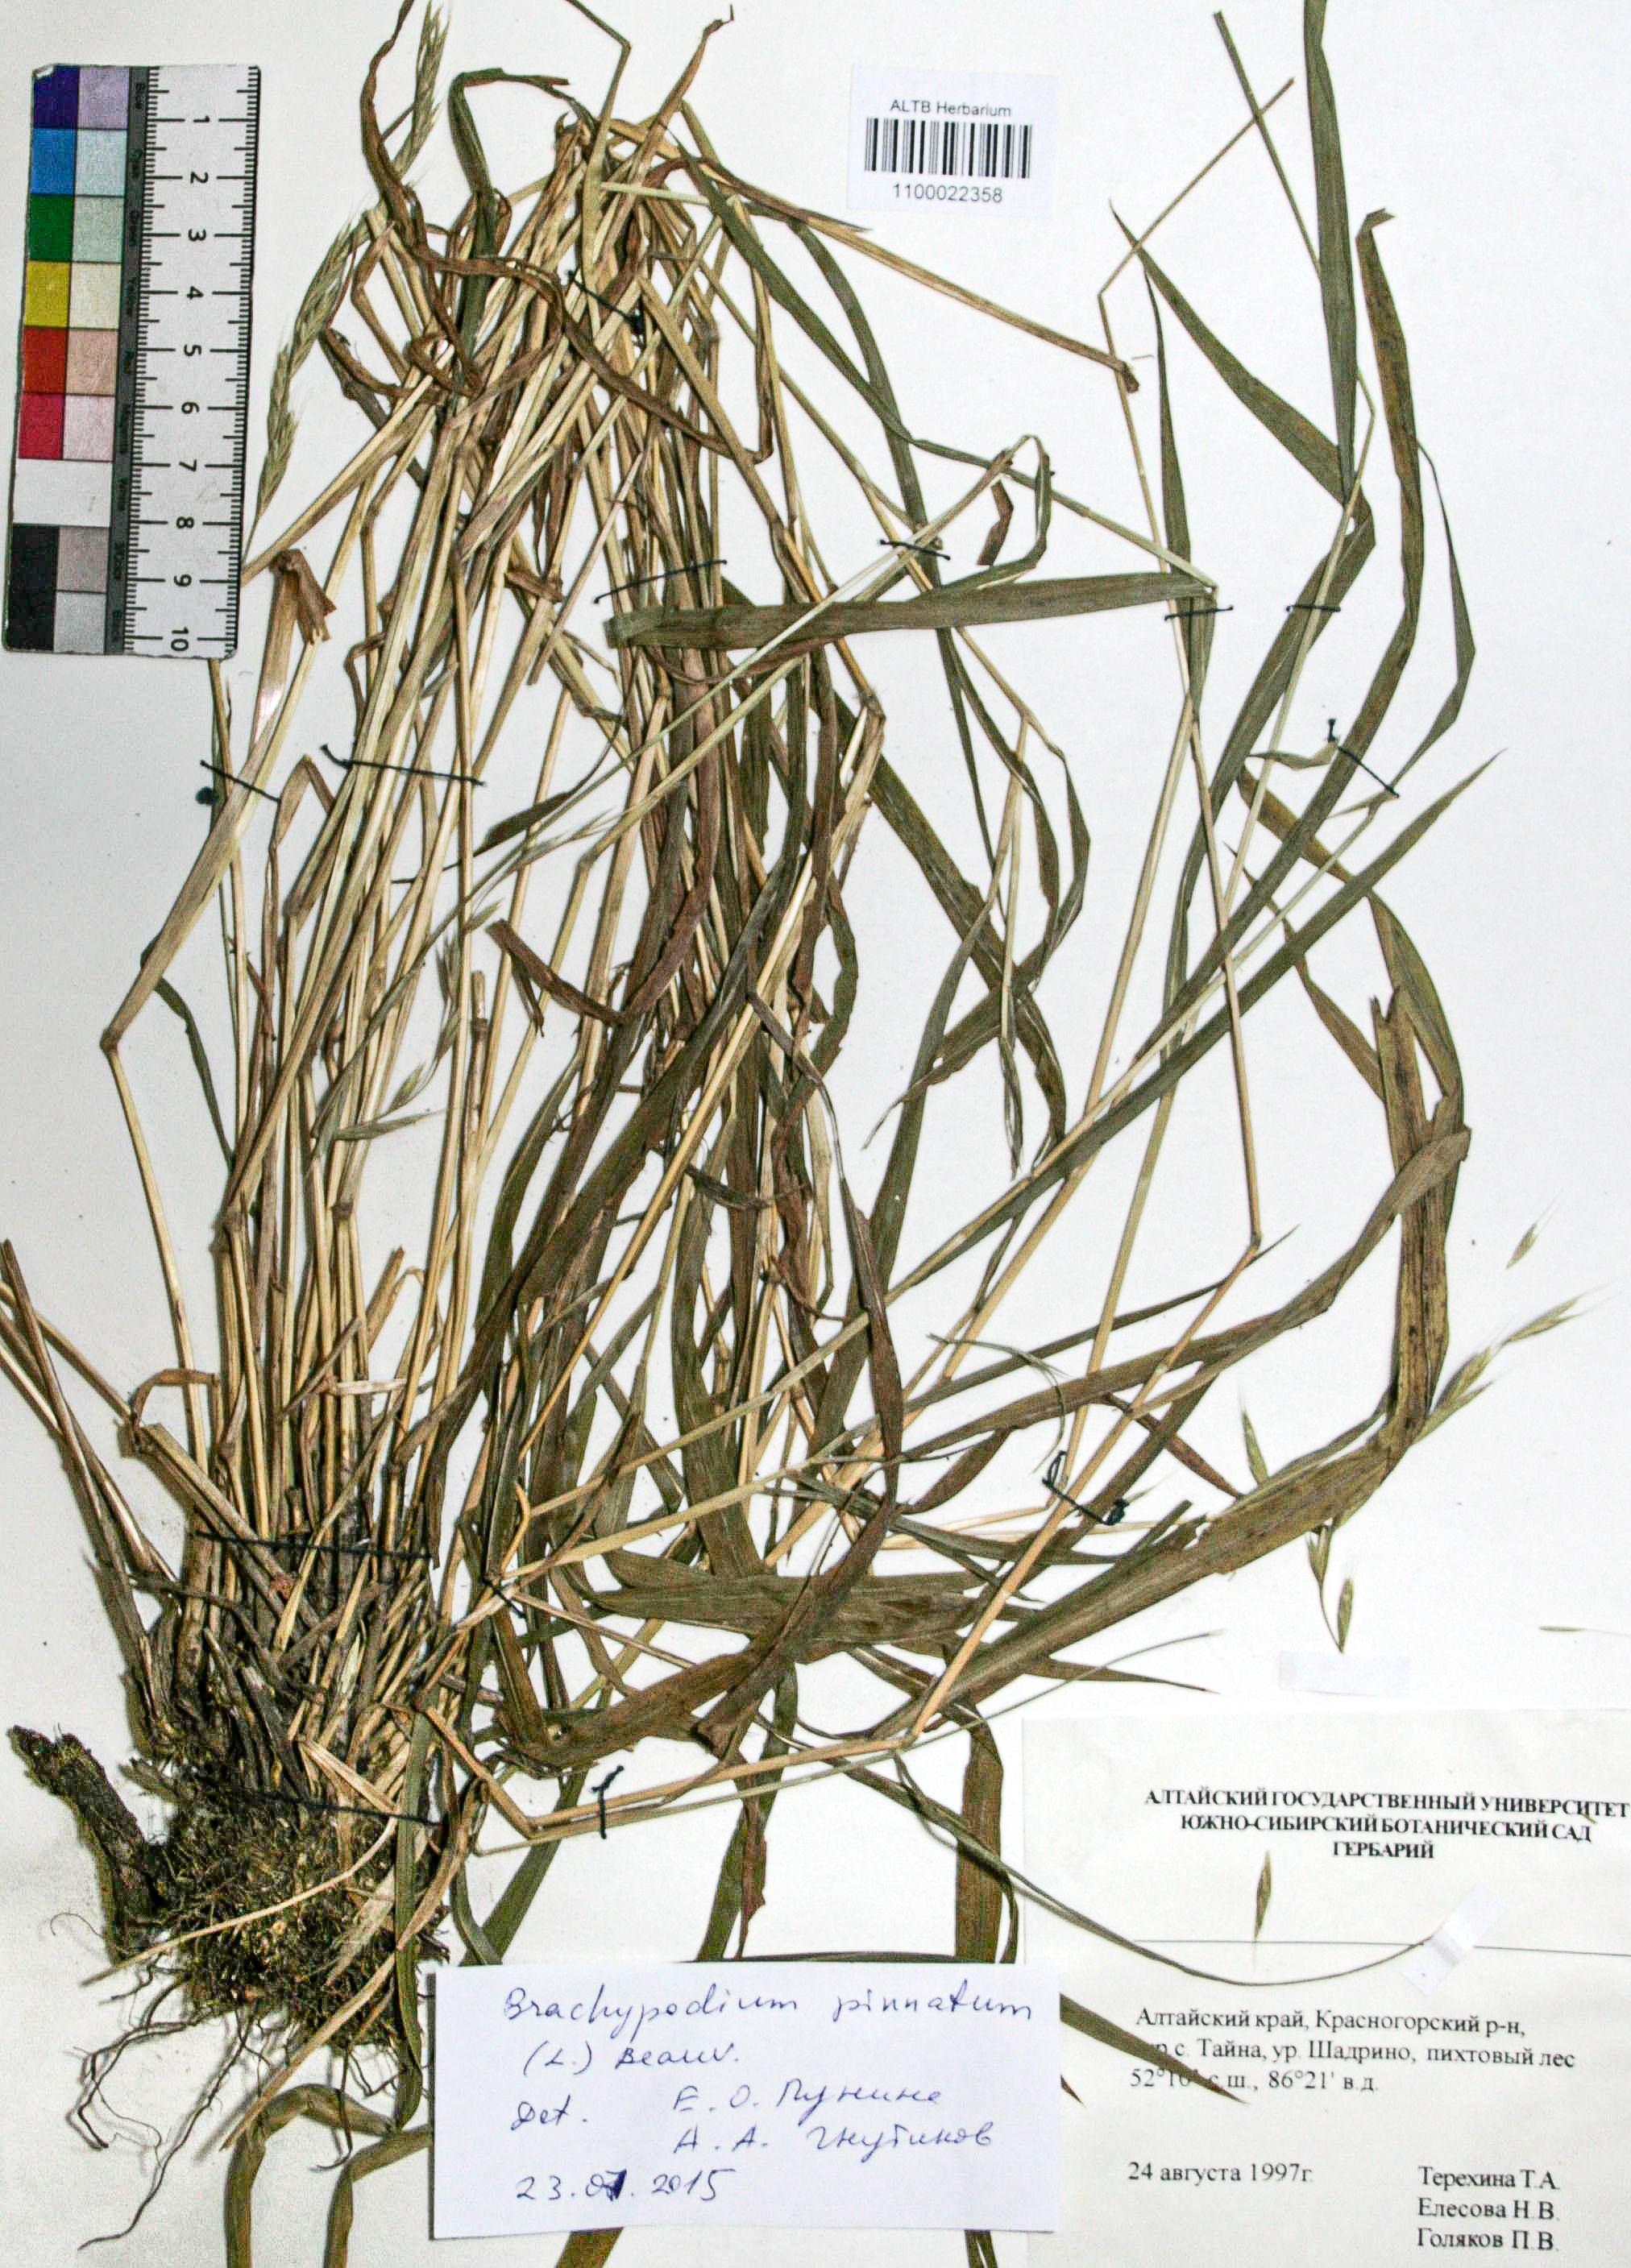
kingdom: Plantae
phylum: Tracheophyta
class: Liliopsida
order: Poales
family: Poaceae
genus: Brachypodium
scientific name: Brachypodium pinnatum
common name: Tor grass
